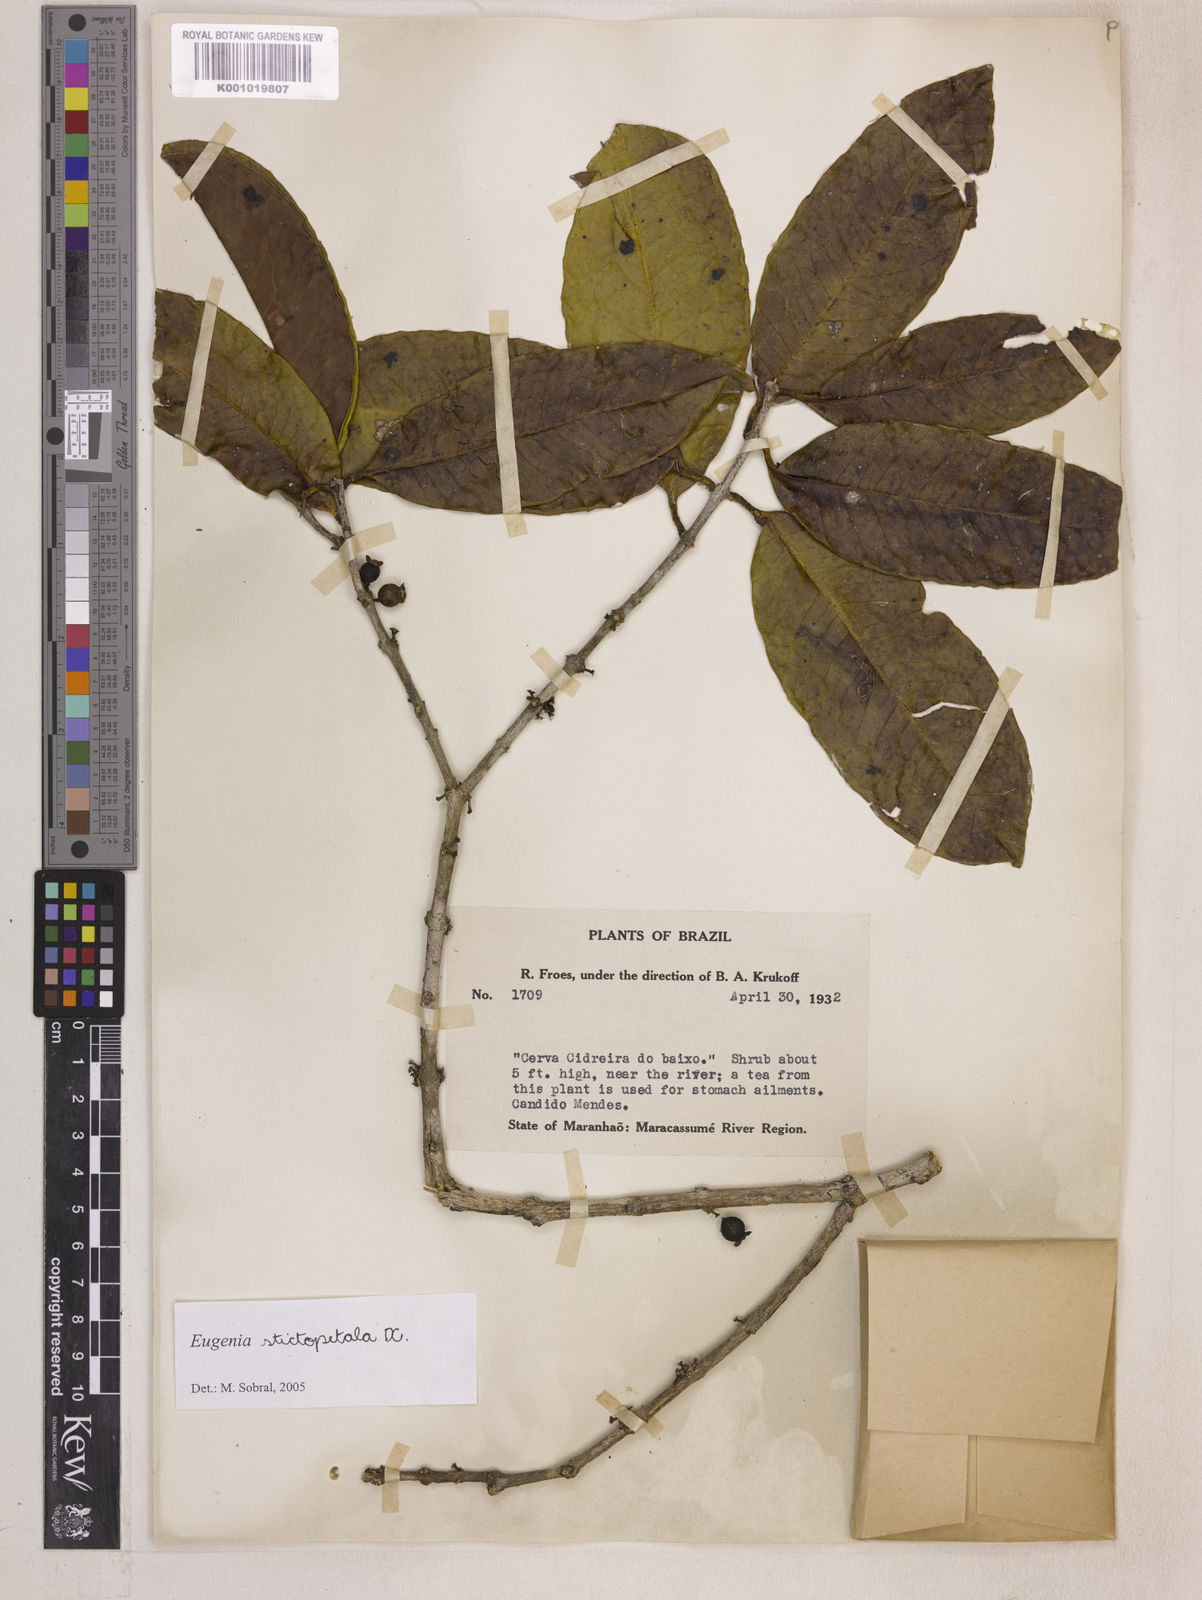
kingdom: Plantae
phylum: Tracheophyta
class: Magnoliopsida
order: Myrtales
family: Myrtaceae
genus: Eugenia
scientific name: Eugenia stictopetala
